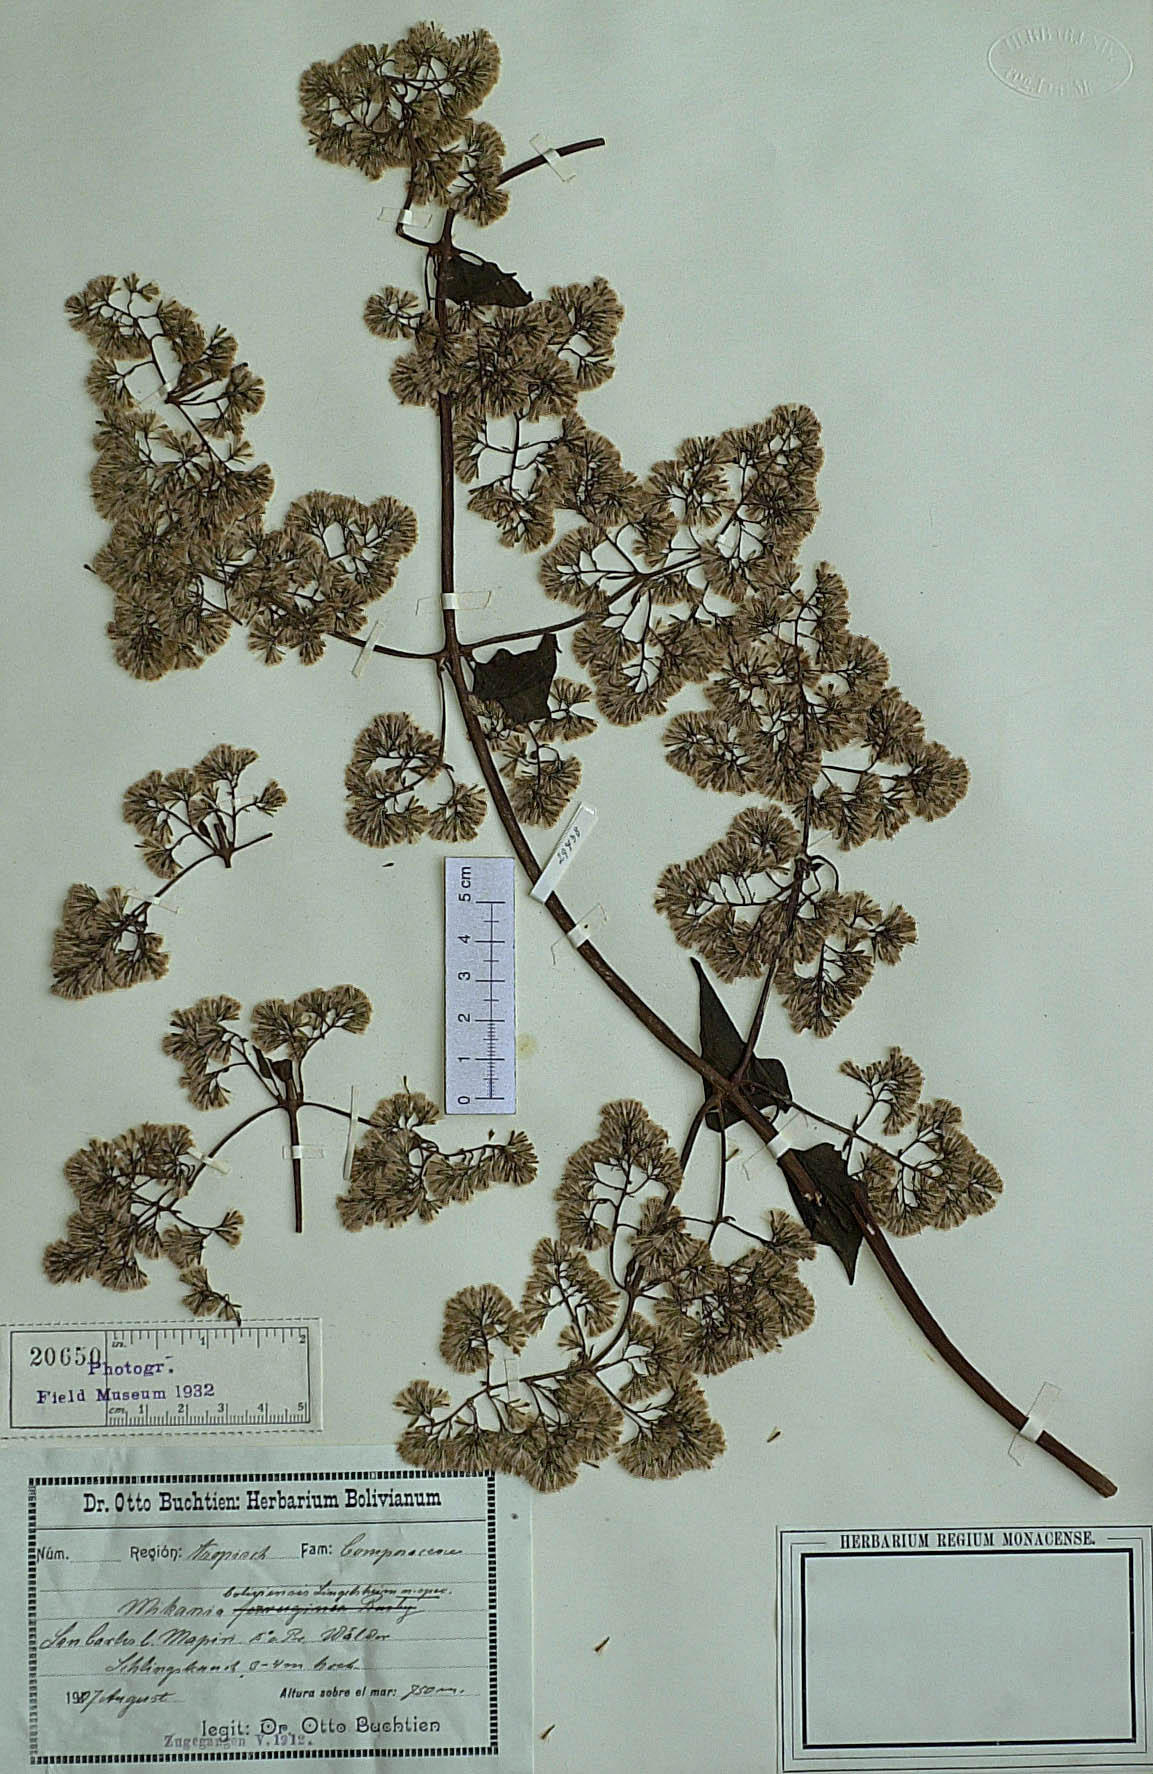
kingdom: Plantae
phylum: Tracheophyta
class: Magnoliopsida
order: Asterales
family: Asteraceae
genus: Mikania
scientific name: Mikania vitifolia
